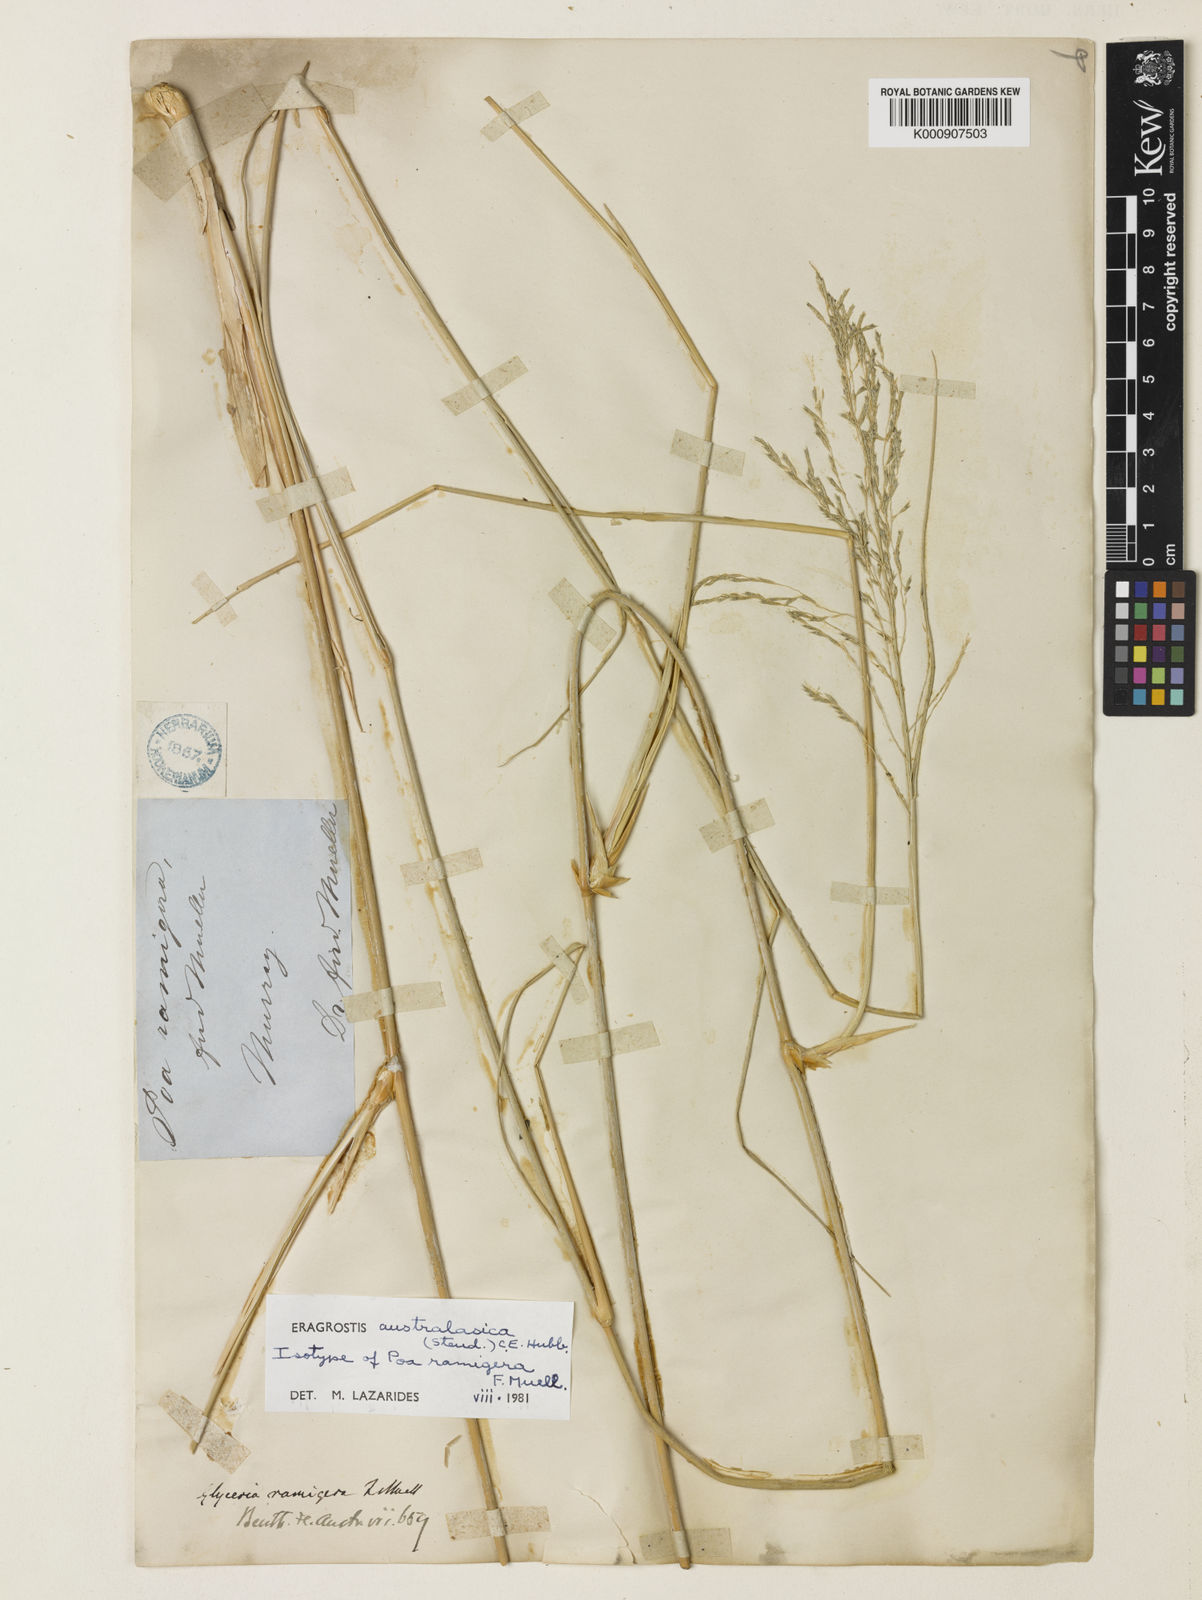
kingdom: Plantae
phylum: Tracheophyta
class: Liliopsida
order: Poales
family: Poaceae
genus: Sporobolus
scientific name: Sporobolus ramigerus
